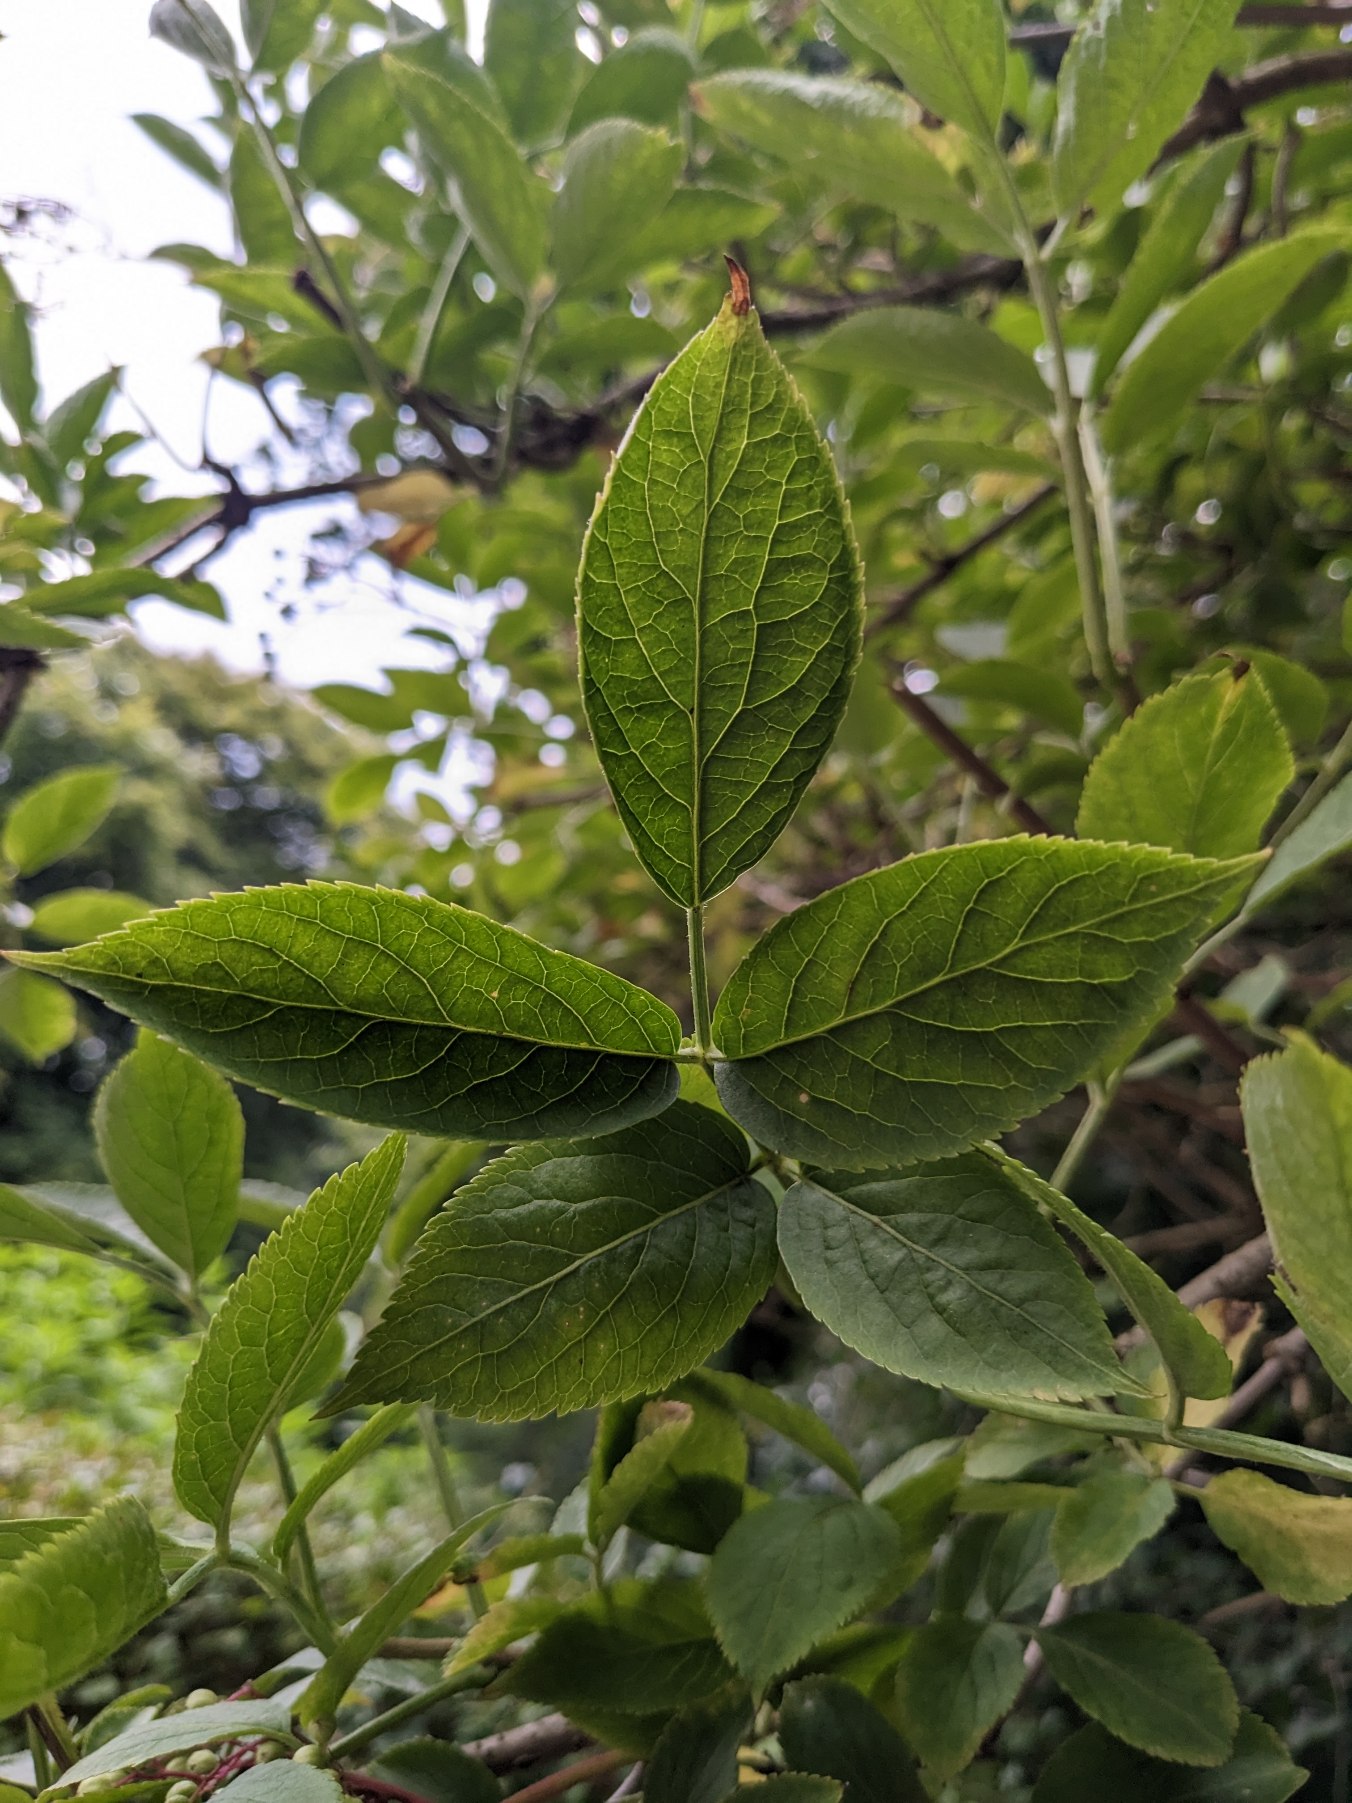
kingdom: Plantae
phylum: Tracheophyta
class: Magnoliopsida
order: Dipsacales
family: Viburnaceae
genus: Sambucus
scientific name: Sambucus nigra
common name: Almindelig hyld
